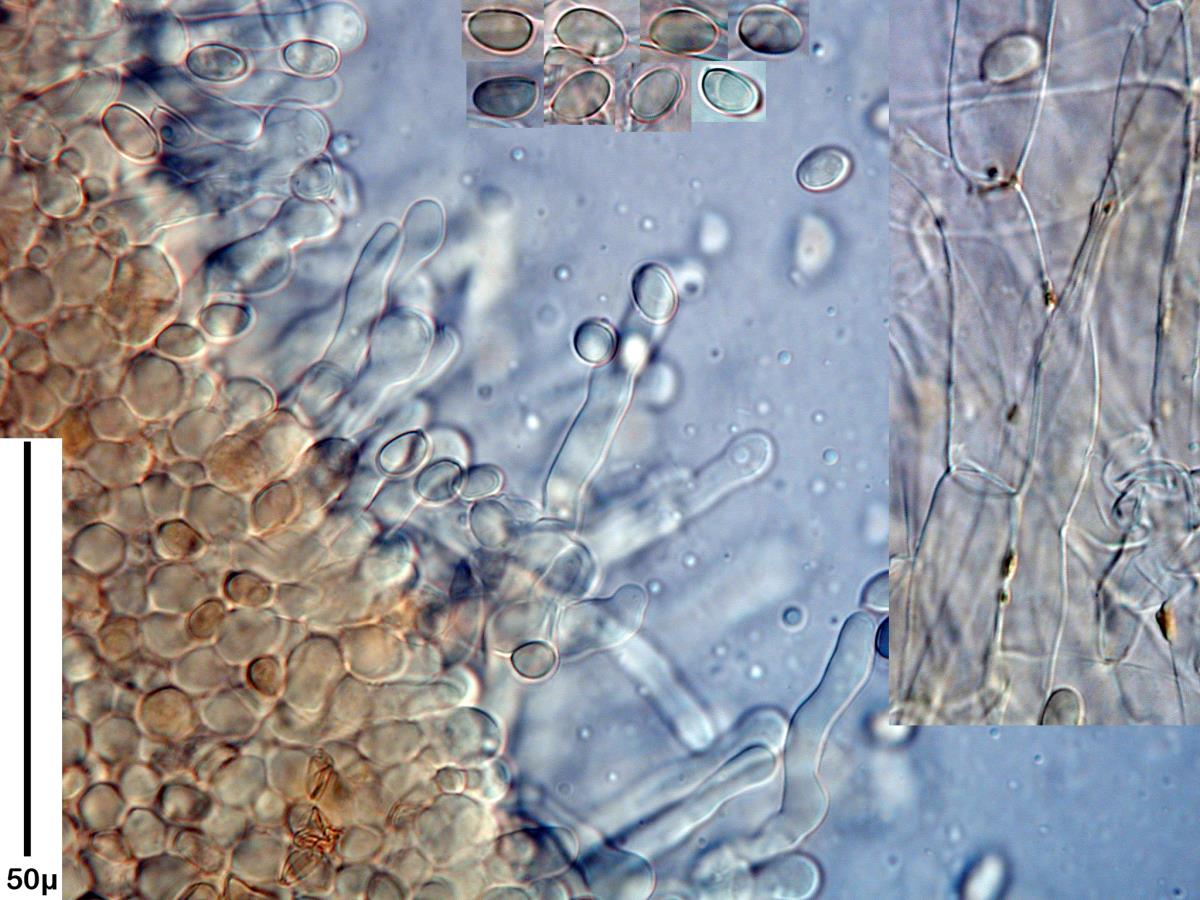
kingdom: Fungi
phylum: Basidiomycota
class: Agaricomycetes
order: Agaricales
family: Tubariaceae
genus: Tubaria
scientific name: Tubaria furfuracea
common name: Scurfy twiglet
